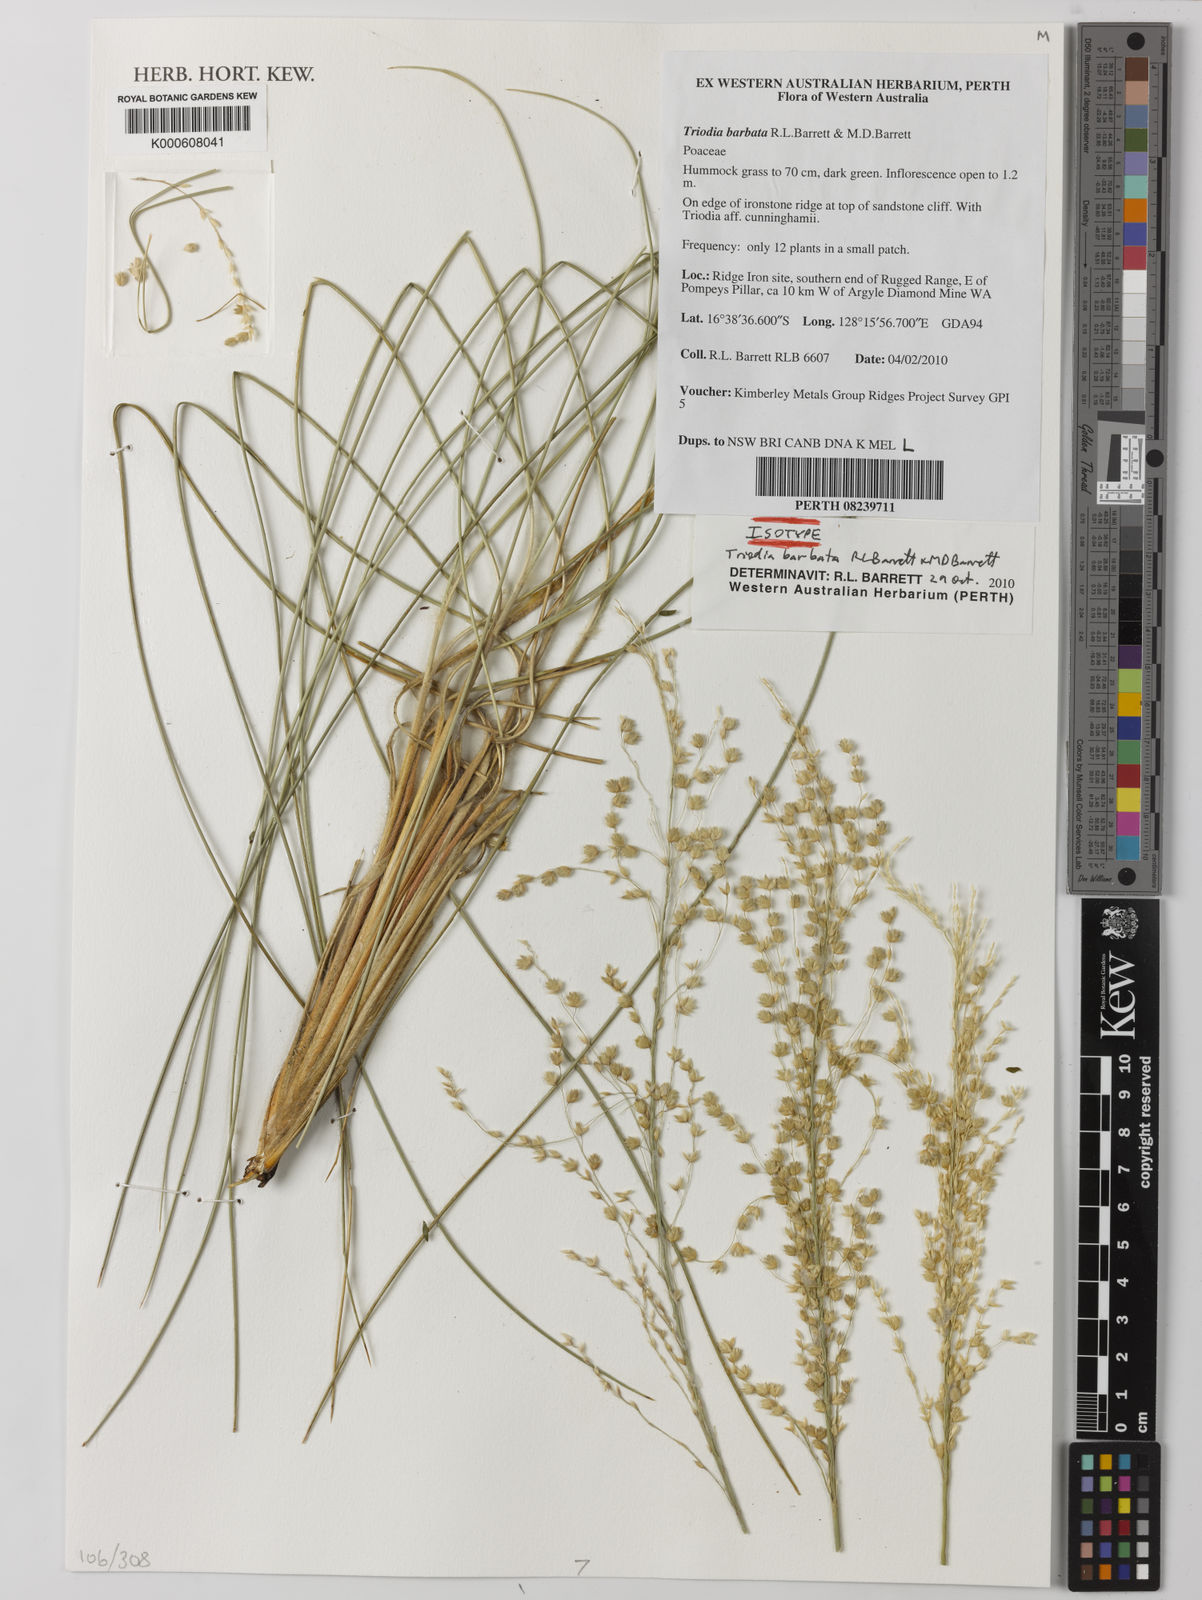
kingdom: Plantae
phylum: Tracheophyta
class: Liliopsida
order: Poales
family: Poaceae
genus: Triodia
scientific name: Triodia barbata
